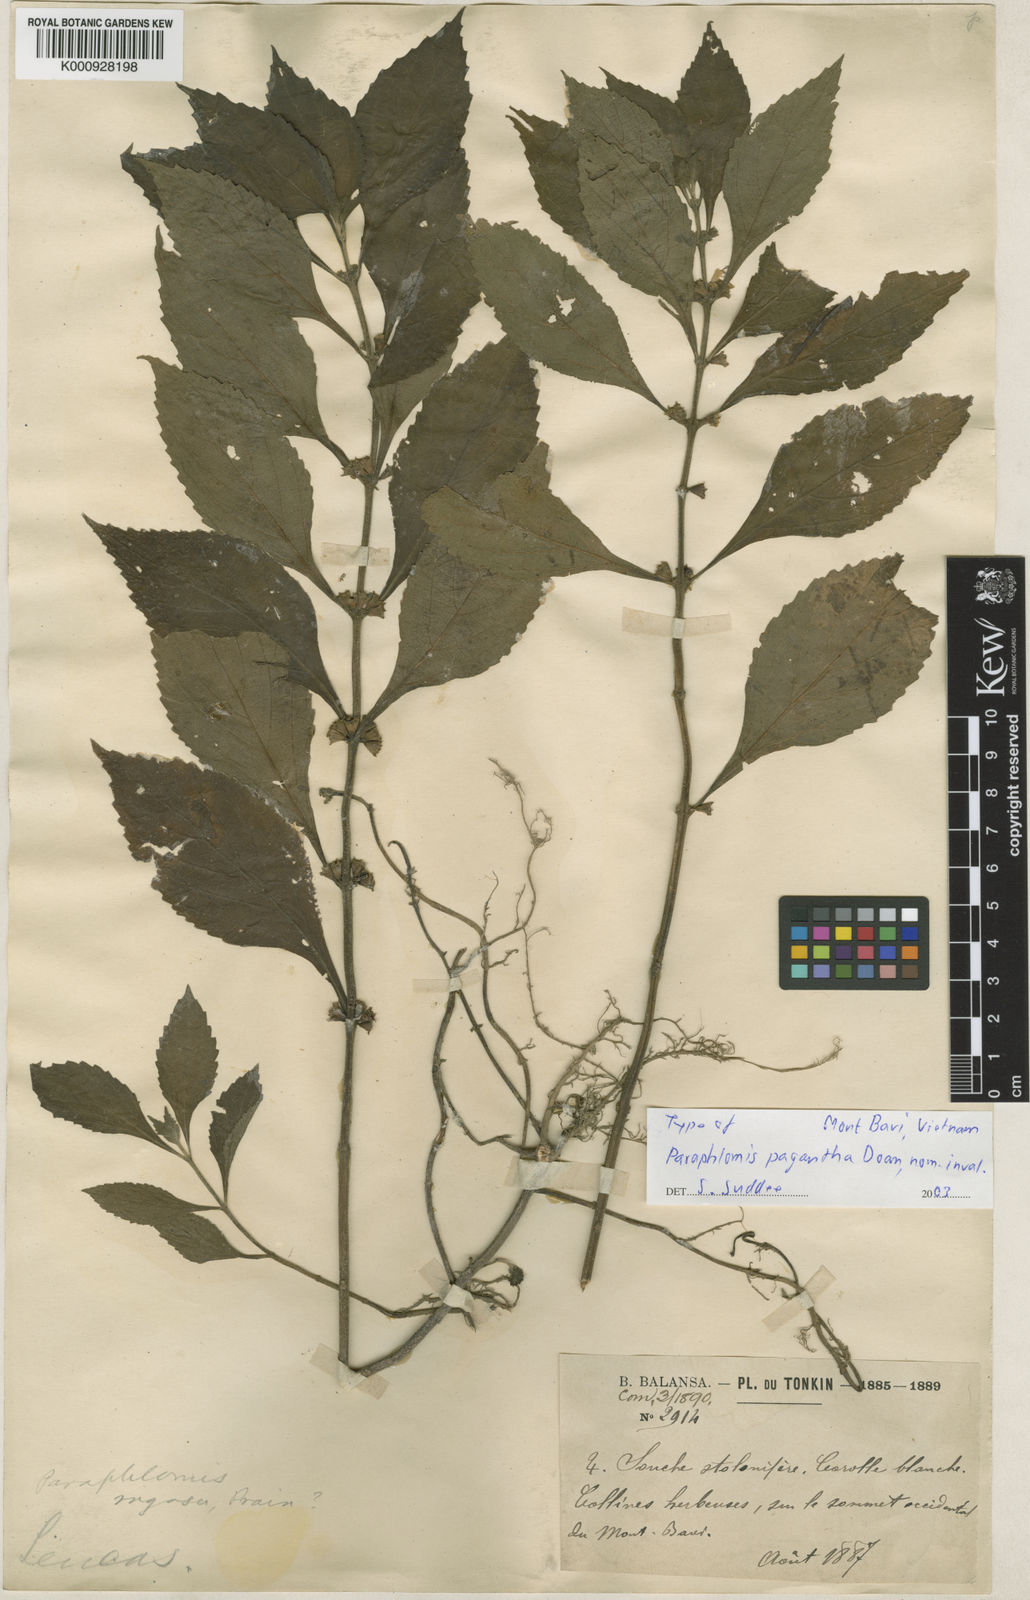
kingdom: Plantae
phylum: Tracheophyta
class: Magnoliopsida
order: Lamiales
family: Lamiaceae
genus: Paraphlomis
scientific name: Paraphlomis javanica
